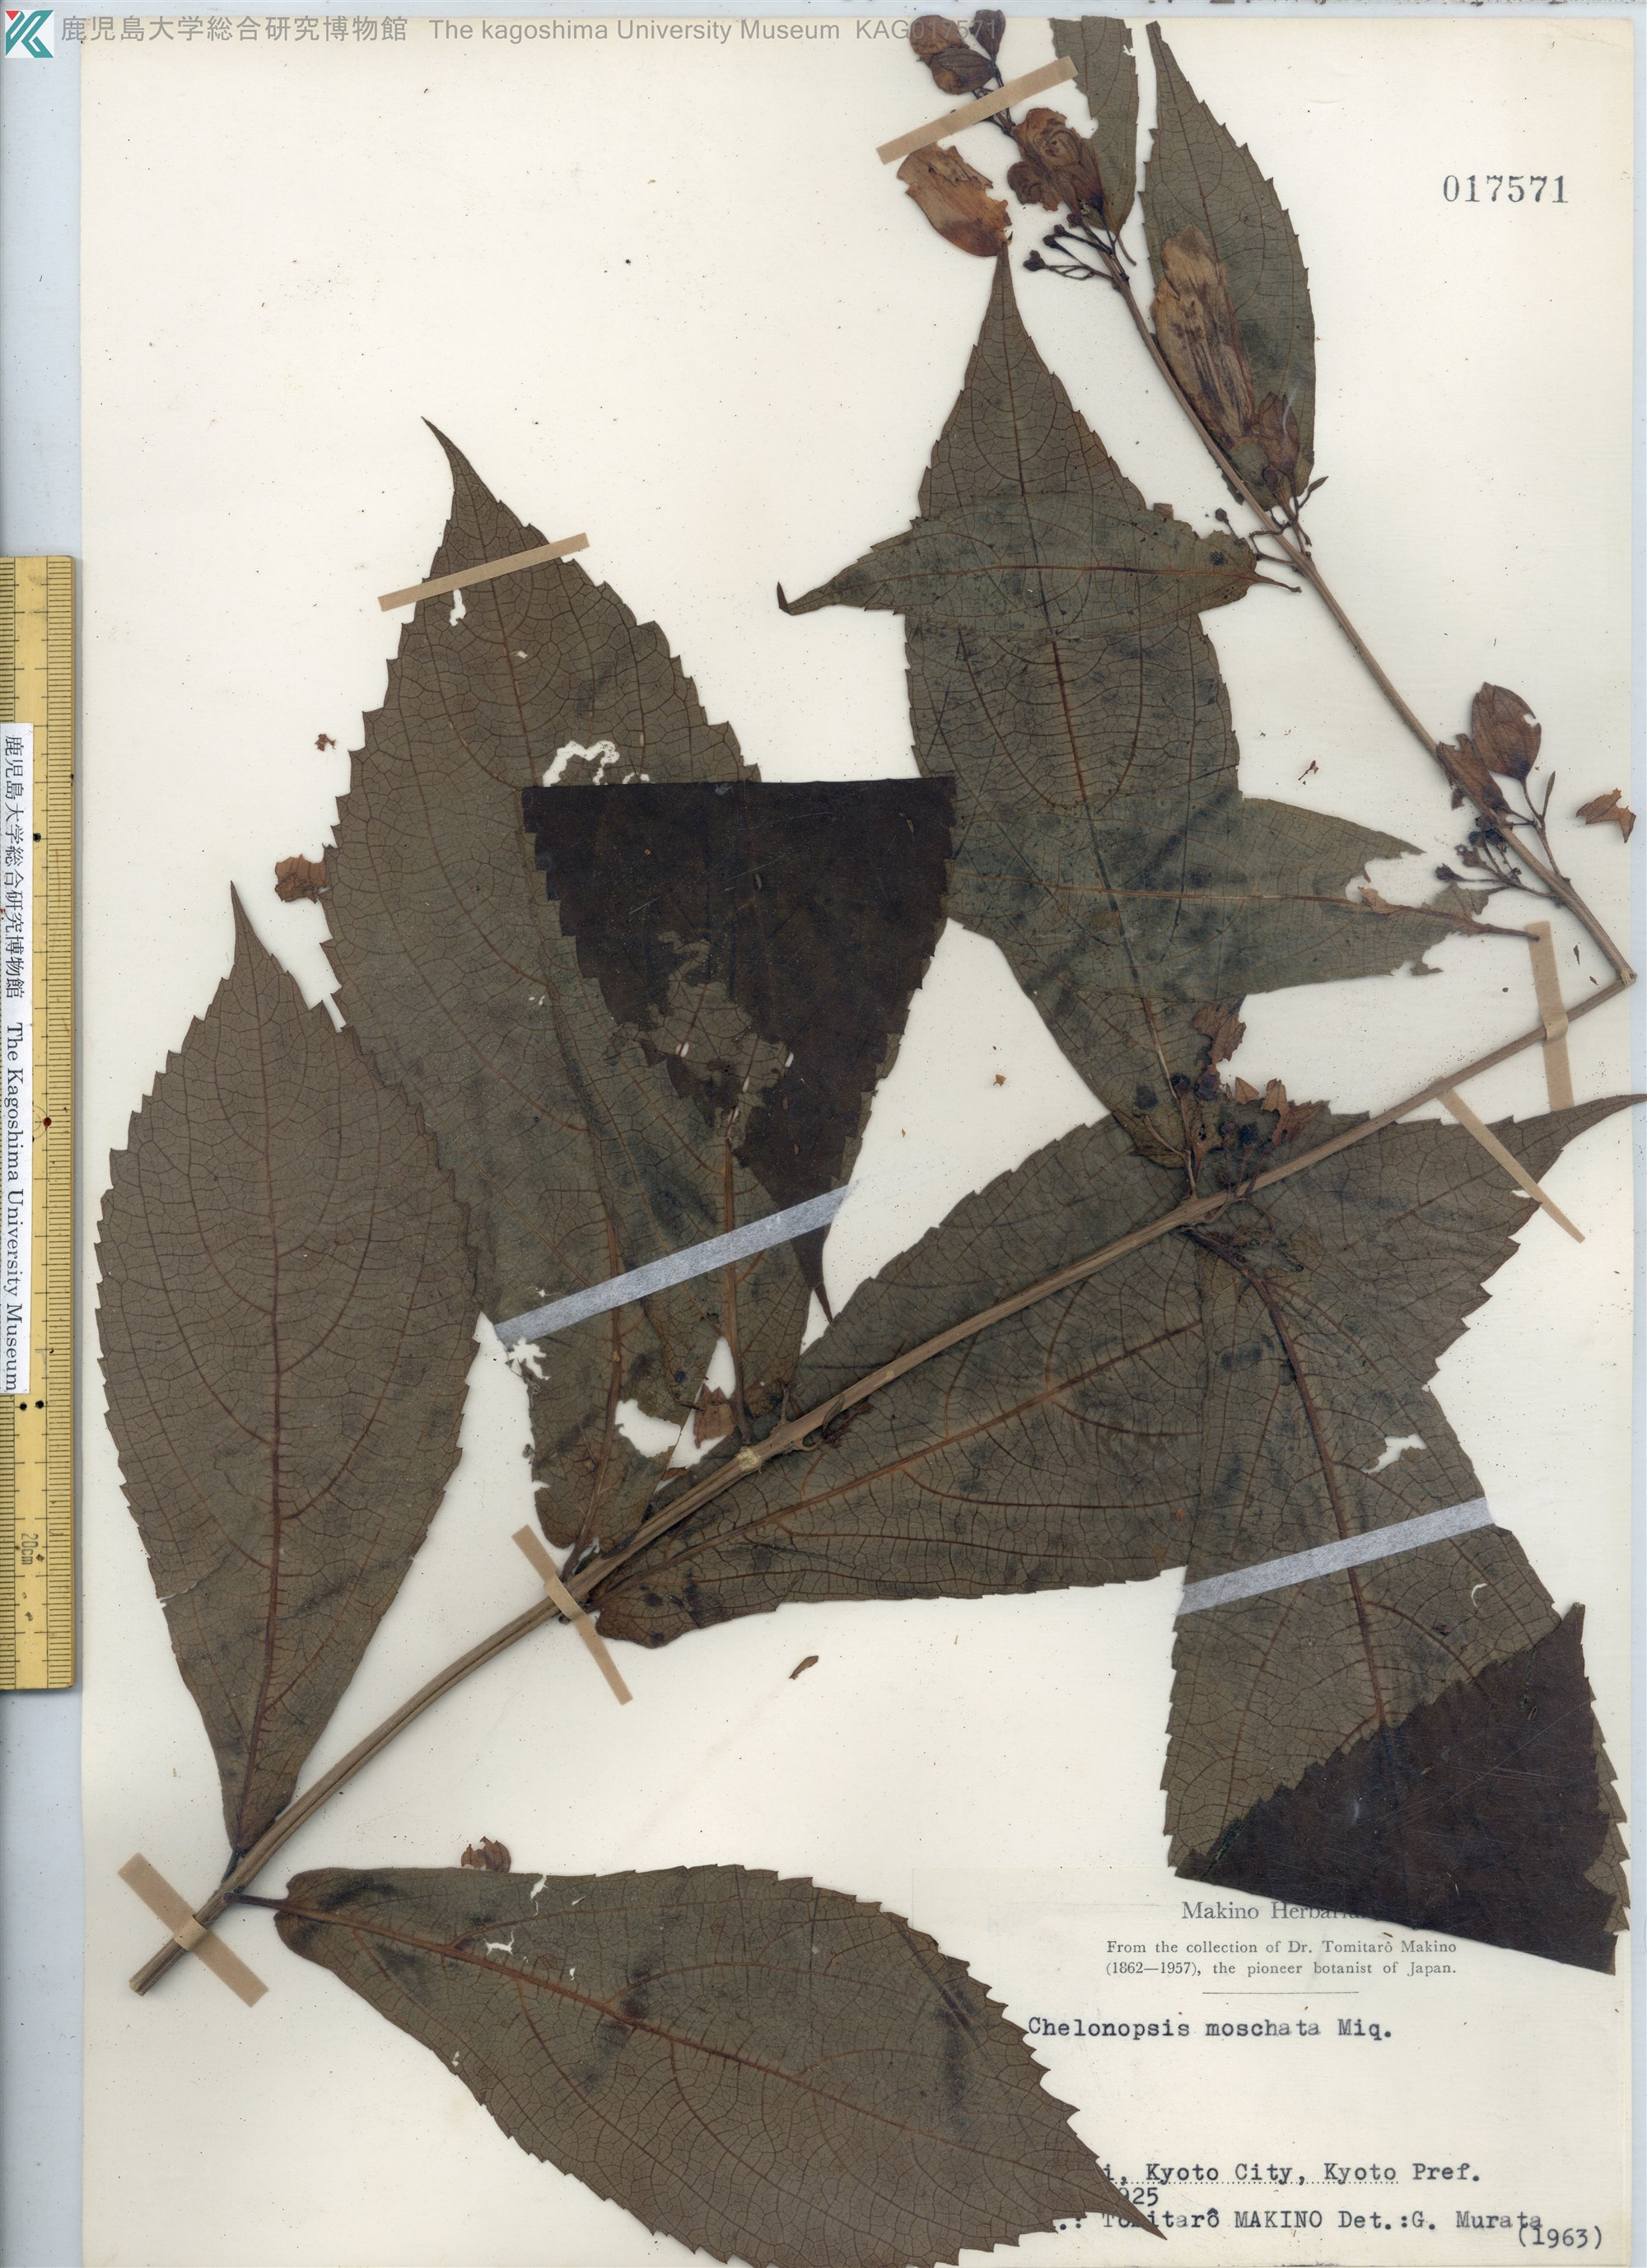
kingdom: Plantae
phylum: Tracheophyta
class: Magnoliopsida
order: Lamiales
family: Lamiaceae
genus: Chelonopsis
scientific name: Chelonopsis moschata
